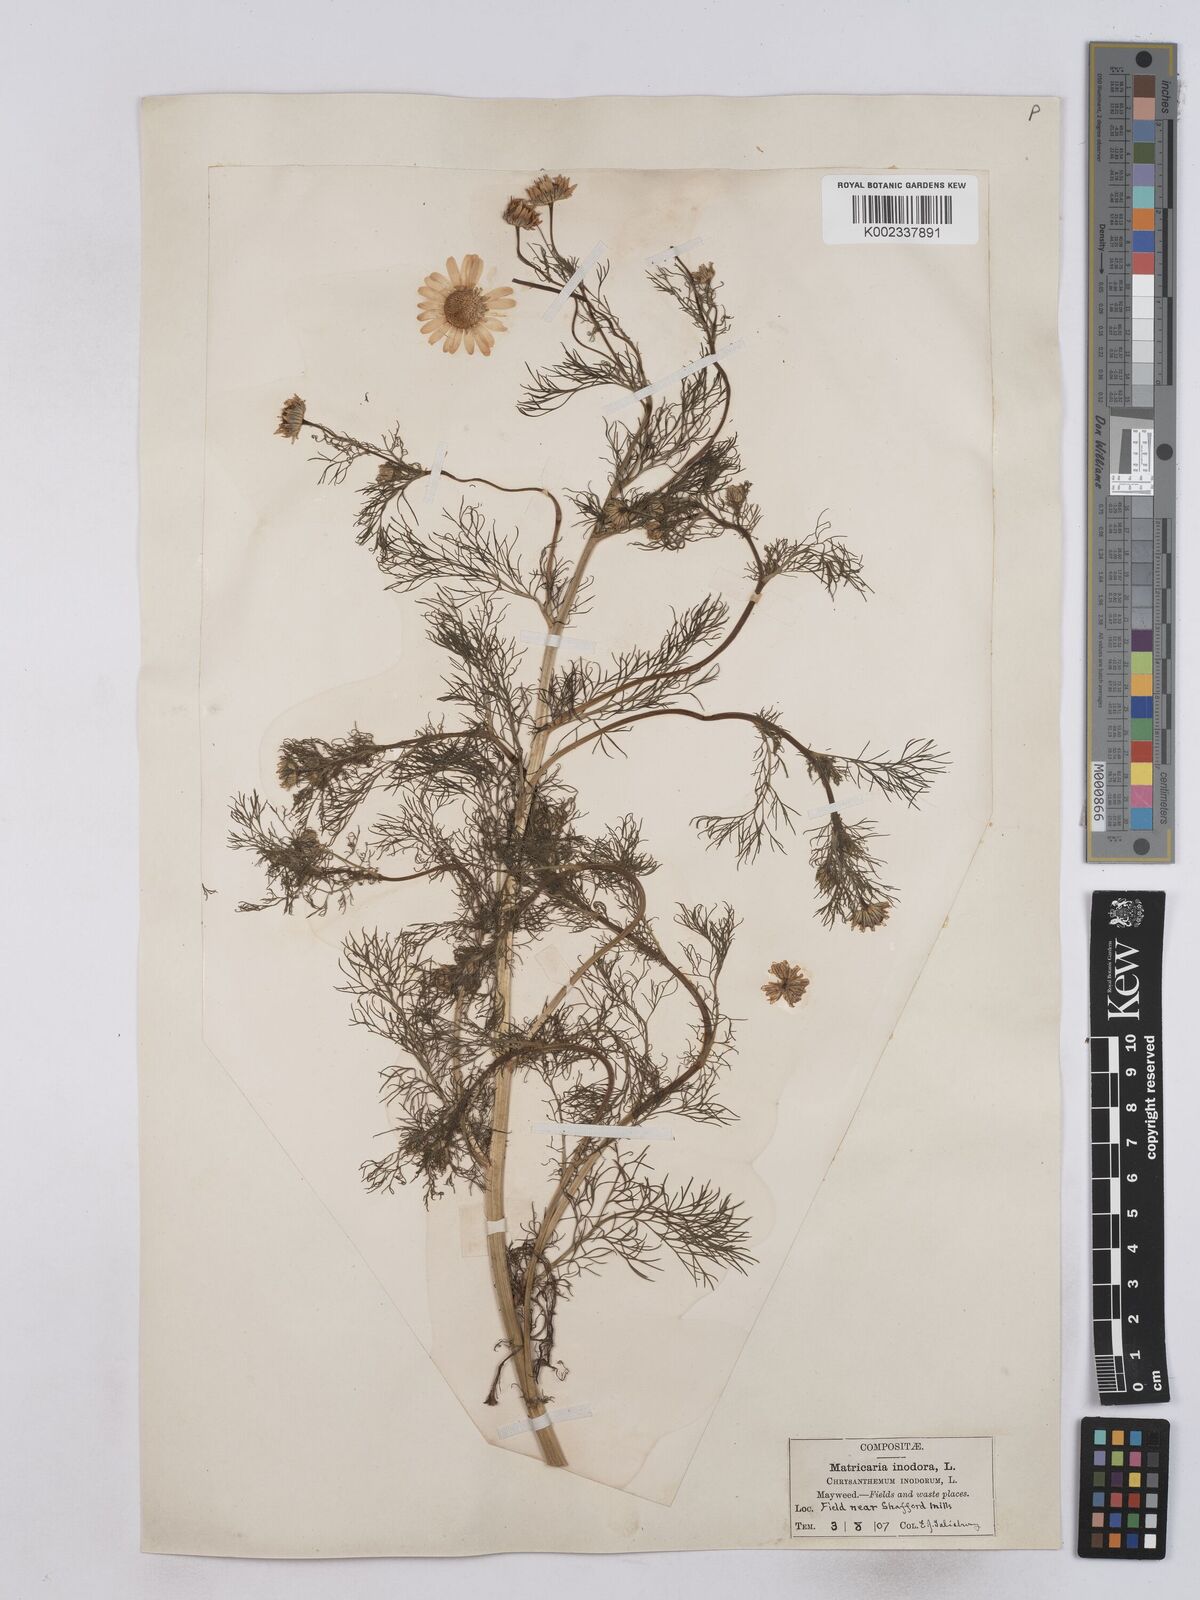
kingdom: Plantae
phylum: Tracheophyta
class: Magnoliopsida
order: Asterales
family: Asteraceae
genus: Matricaria
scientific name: Matricaria discoidea
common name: Disc mayweed
